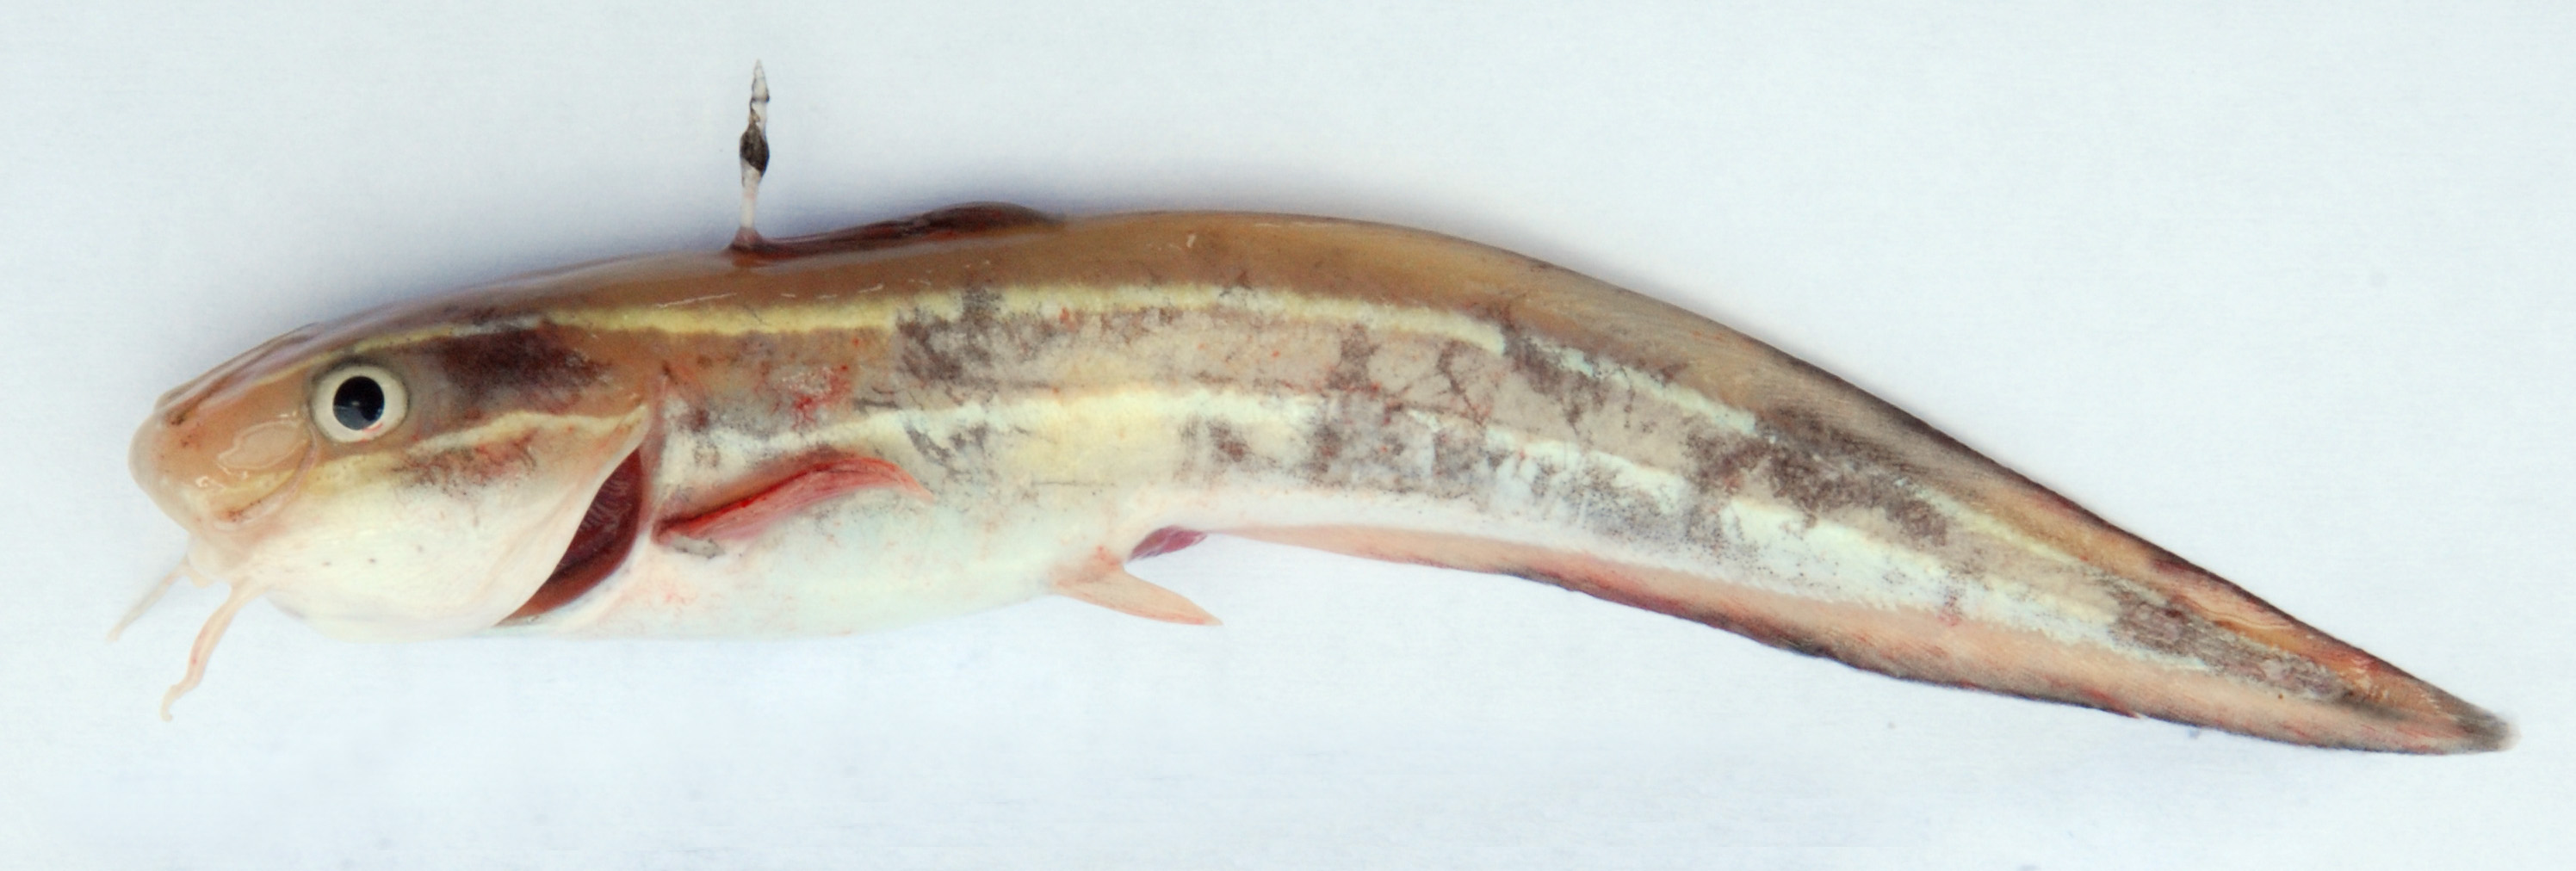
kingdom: Animalia
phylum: Chordata
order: Siluriformes
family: Plotosidae
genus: Plotosus
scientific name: Plotosus lineatus
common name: Striped eel catfish
